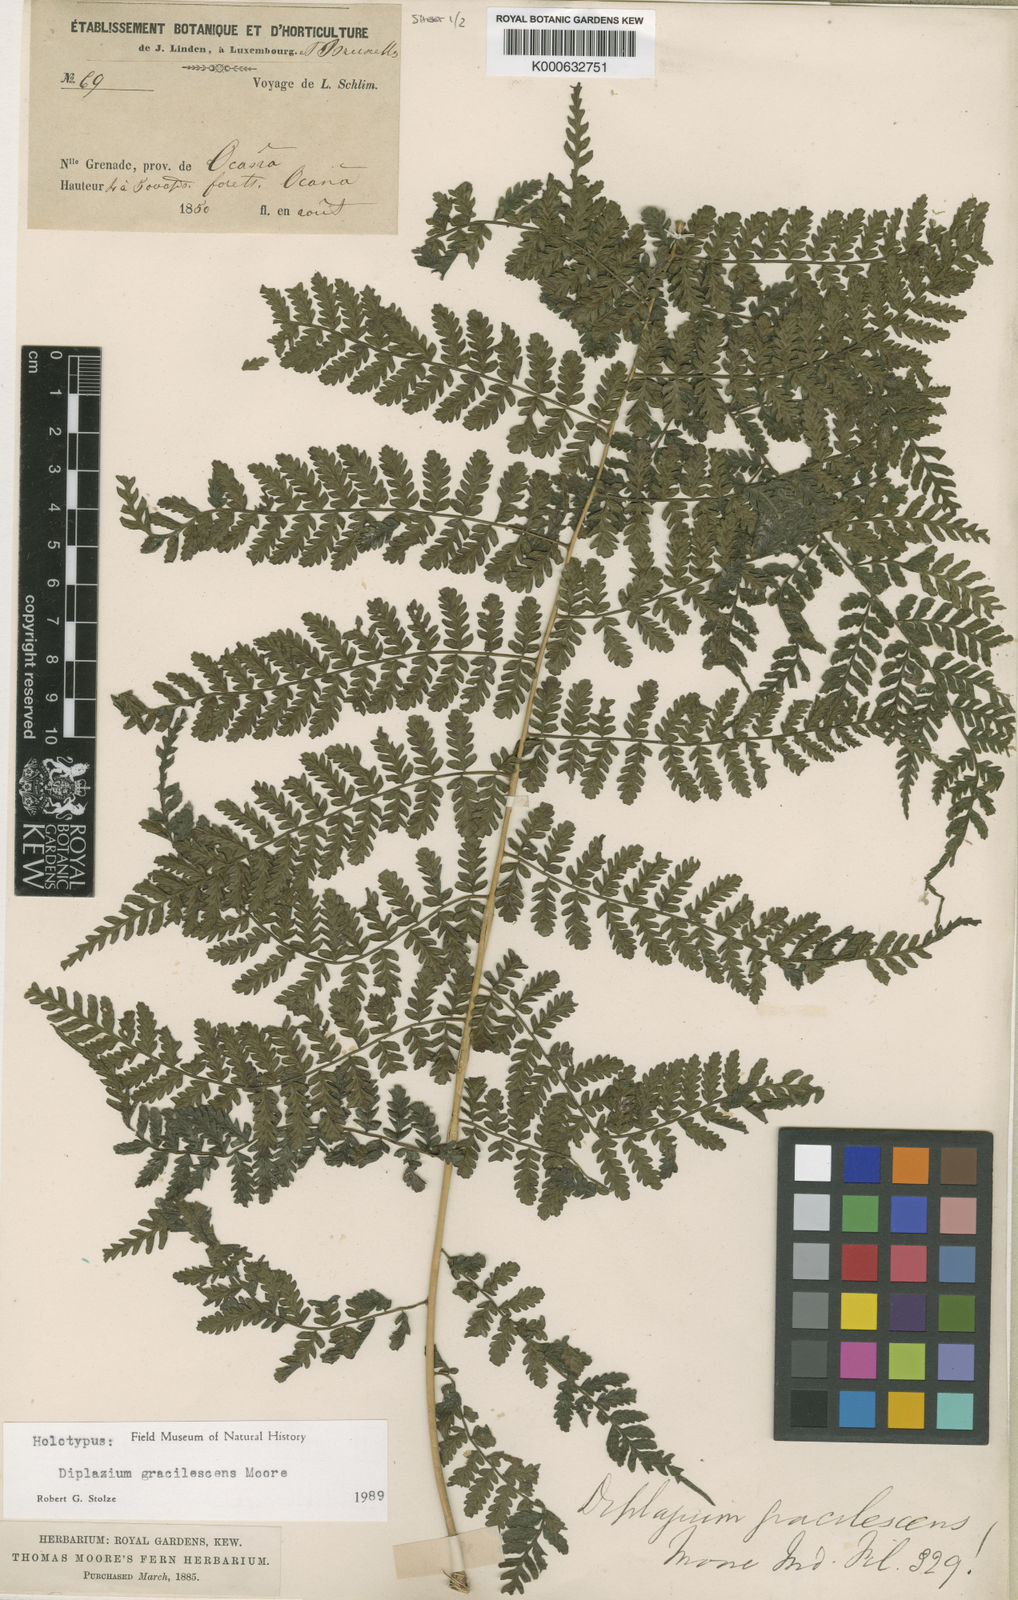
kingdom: Plantae
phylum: Tracheophyta
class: Polypodiopsida
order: Polypodiales
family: Athyriaceae
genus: Diplazium
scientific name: Diplazium gracilescens
